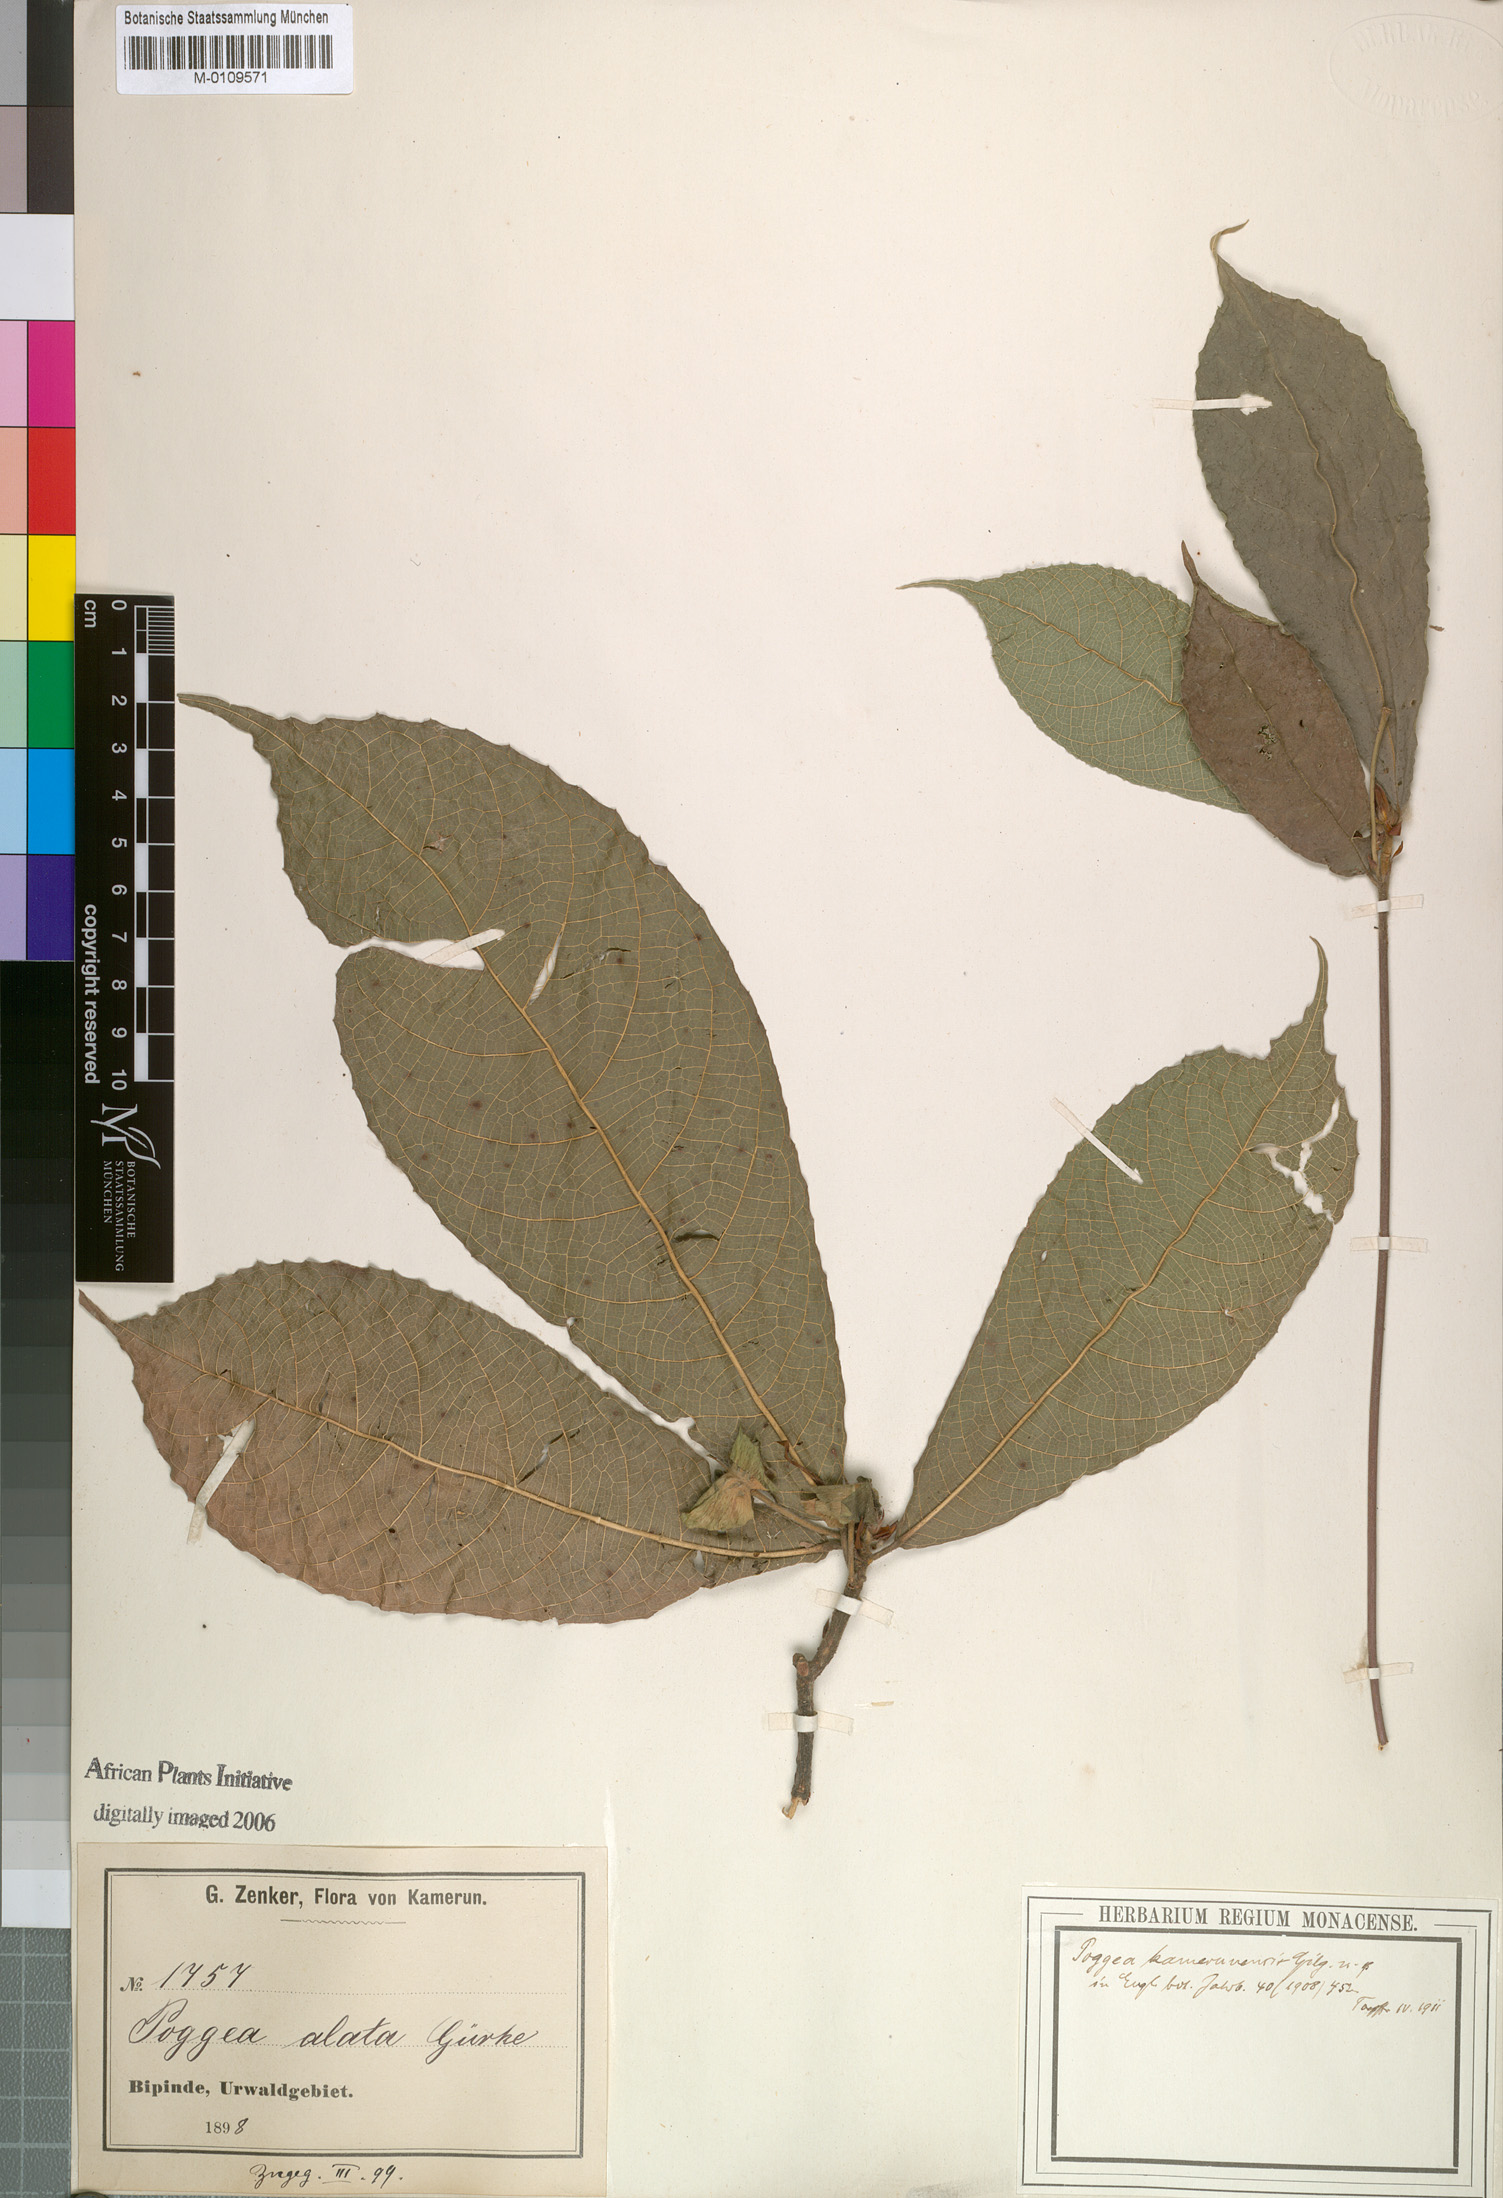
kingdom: Plantae
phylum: Tracheophyta
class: Magnoliopsida
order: Malpighiales
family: Achariaceae
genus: Poggea
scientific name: Poggea alata
